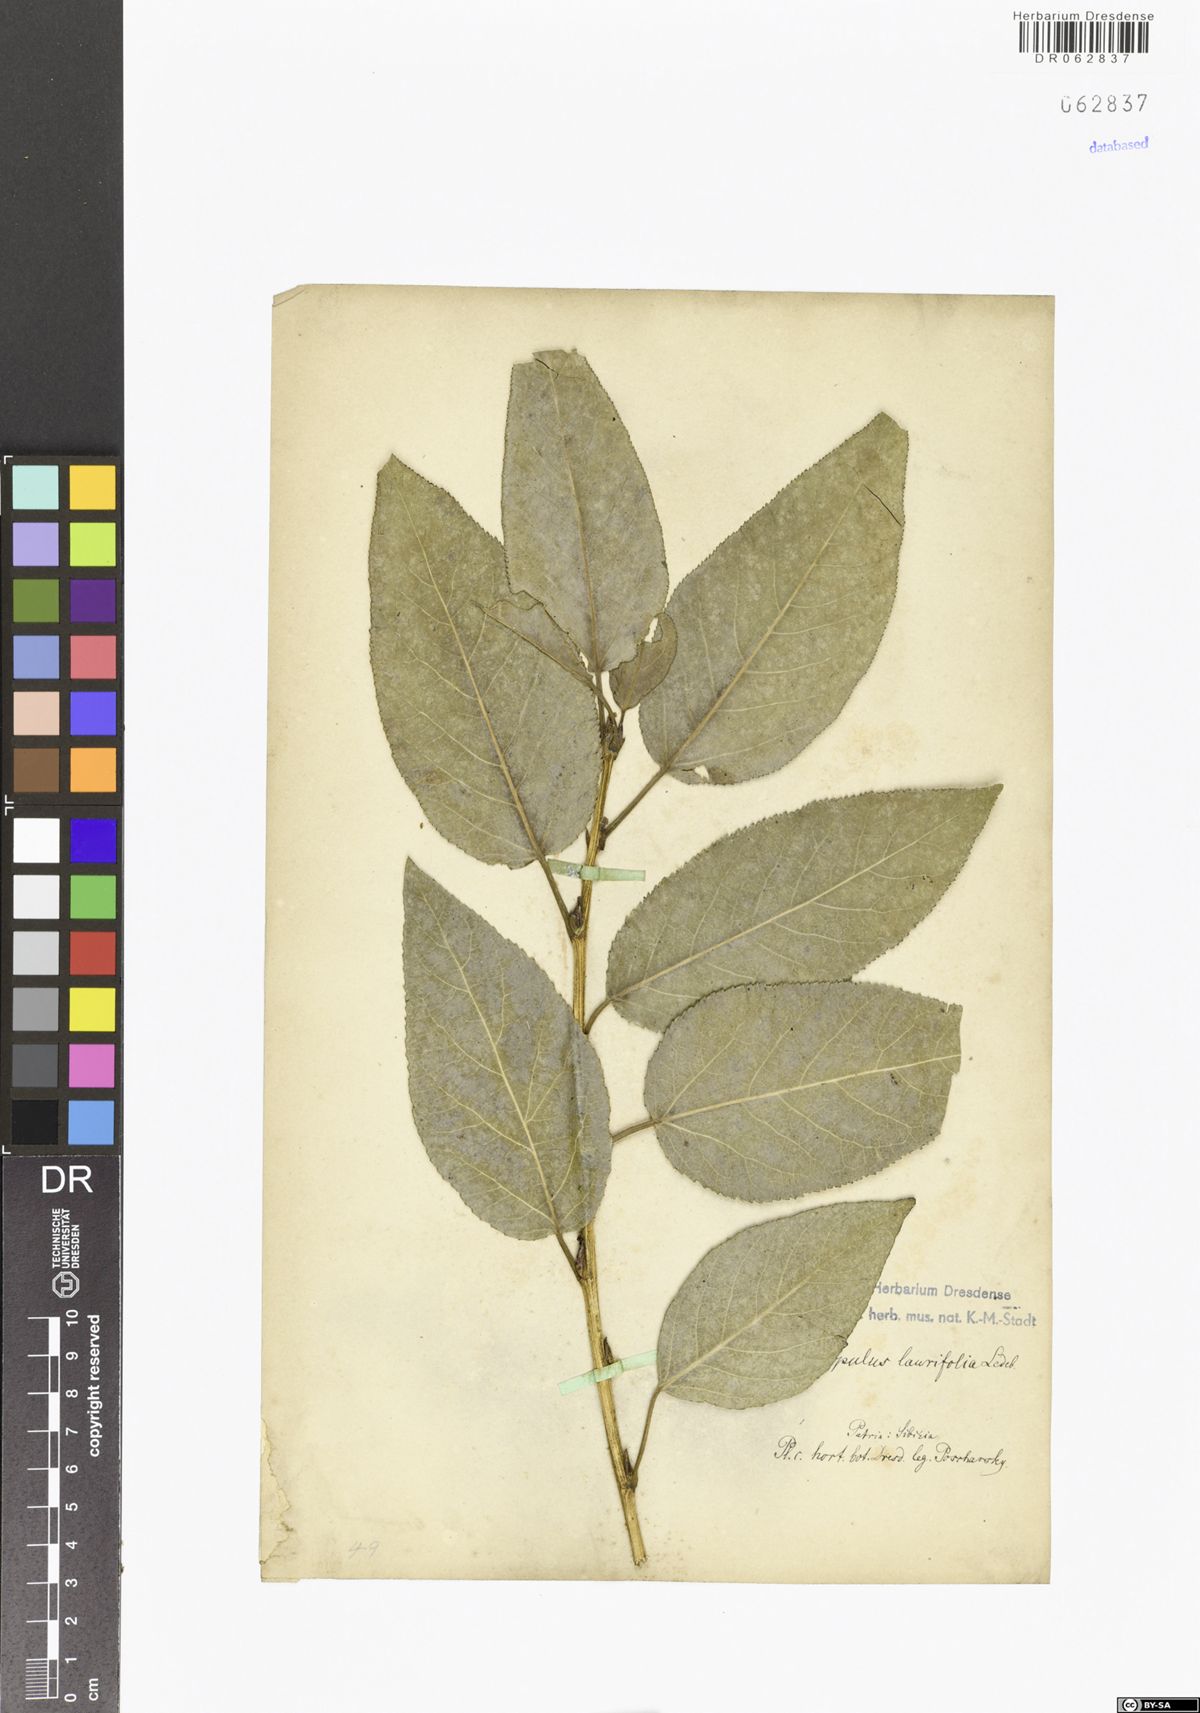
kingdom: Plantae
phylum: Tracheophyta
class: Magnoliopsida
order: Malpighiales
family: Salicaceae
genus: Populus
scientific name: Populus laurifolia
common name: Laurel-leaf poplar
